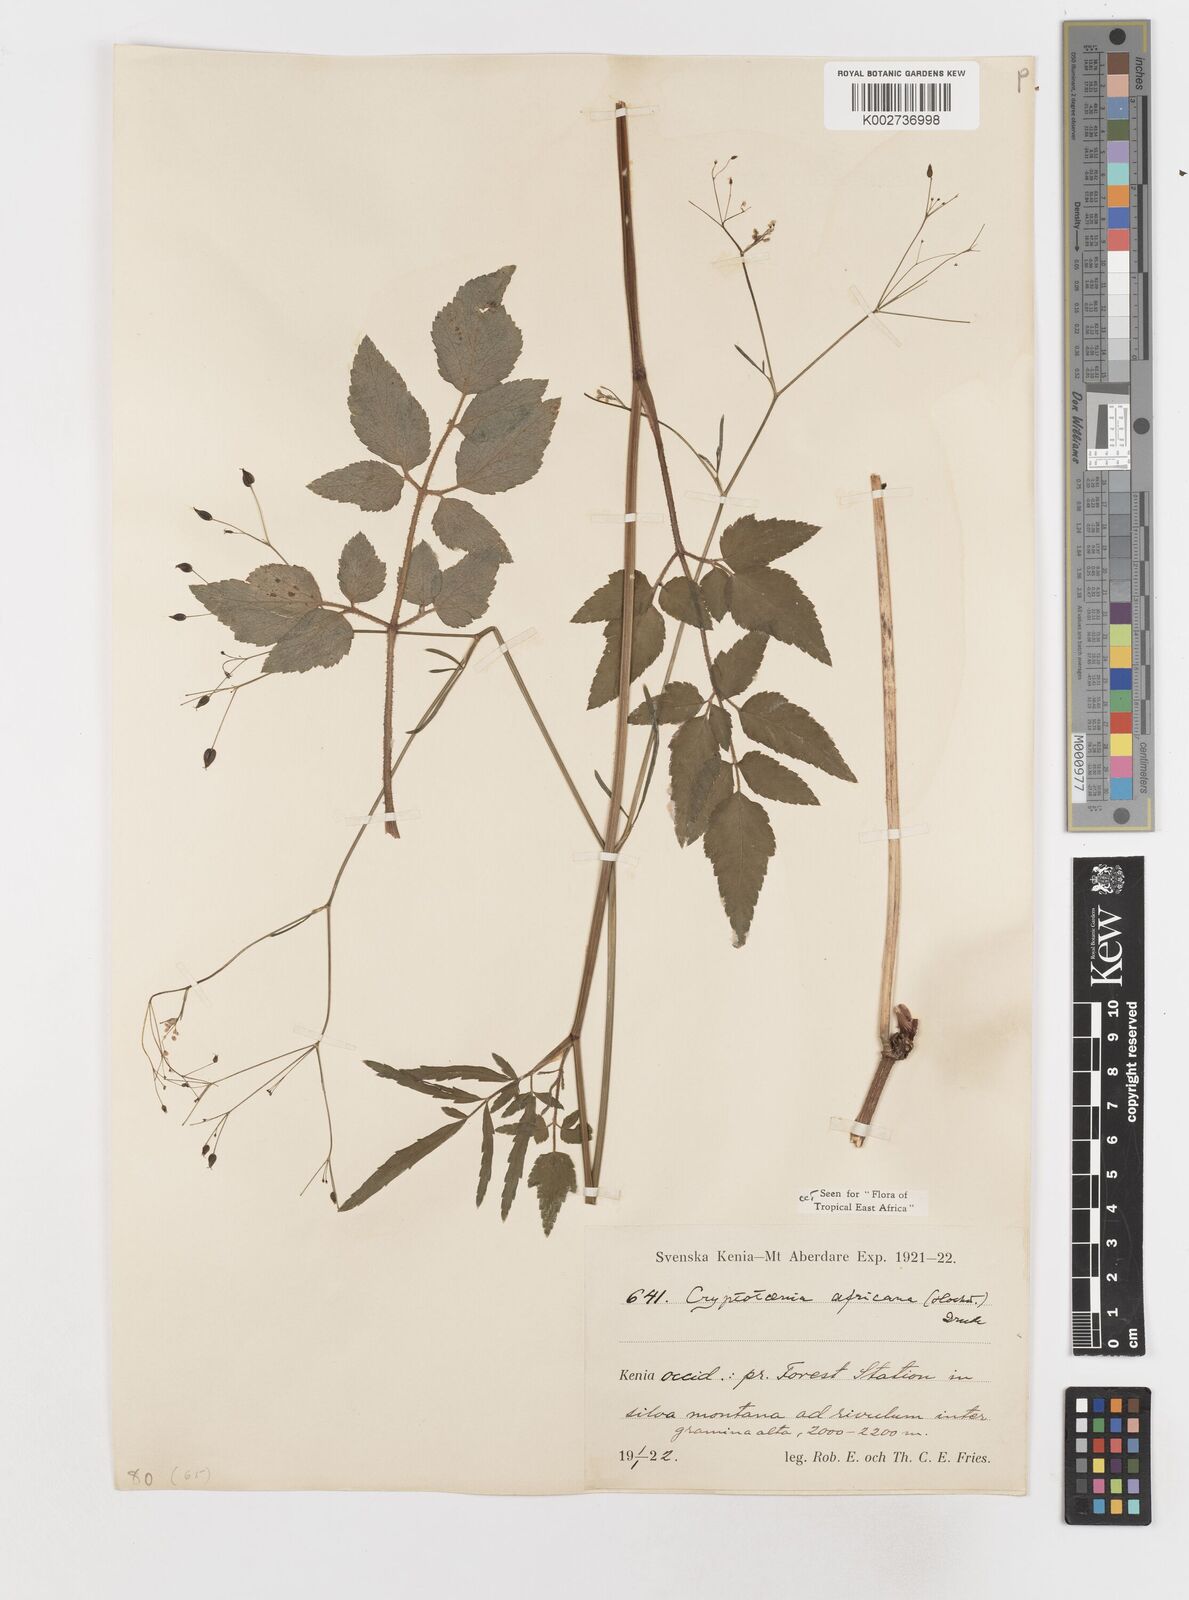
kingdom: Plantae
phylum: Tracheophyta
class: Magnoliopsida
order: Apiales
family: Apiaceae
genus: Cryptotaenia
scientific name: Cryptotaenia africana
